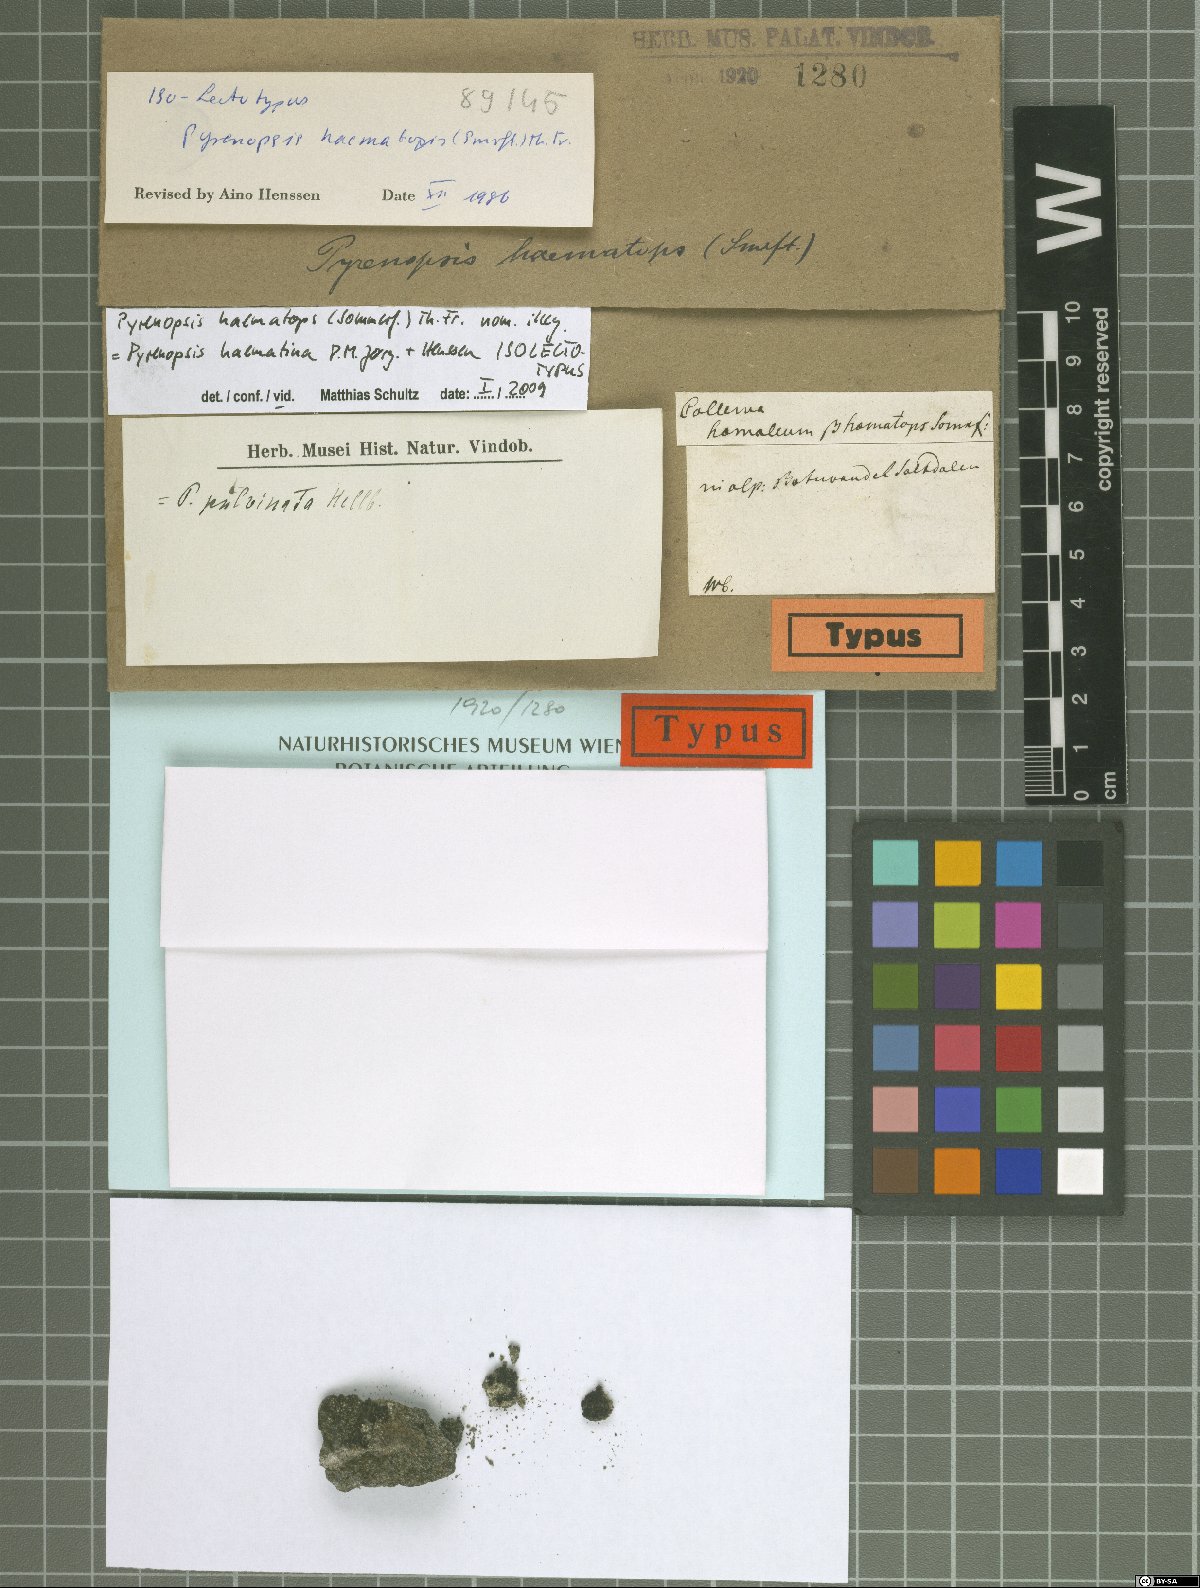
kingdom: Fungi
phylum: Ascomycota
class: Lichinomycetes
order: Lichinales
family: Lichinaceae
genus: Pyrenopsis
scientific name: Pyrenopsis haematina
